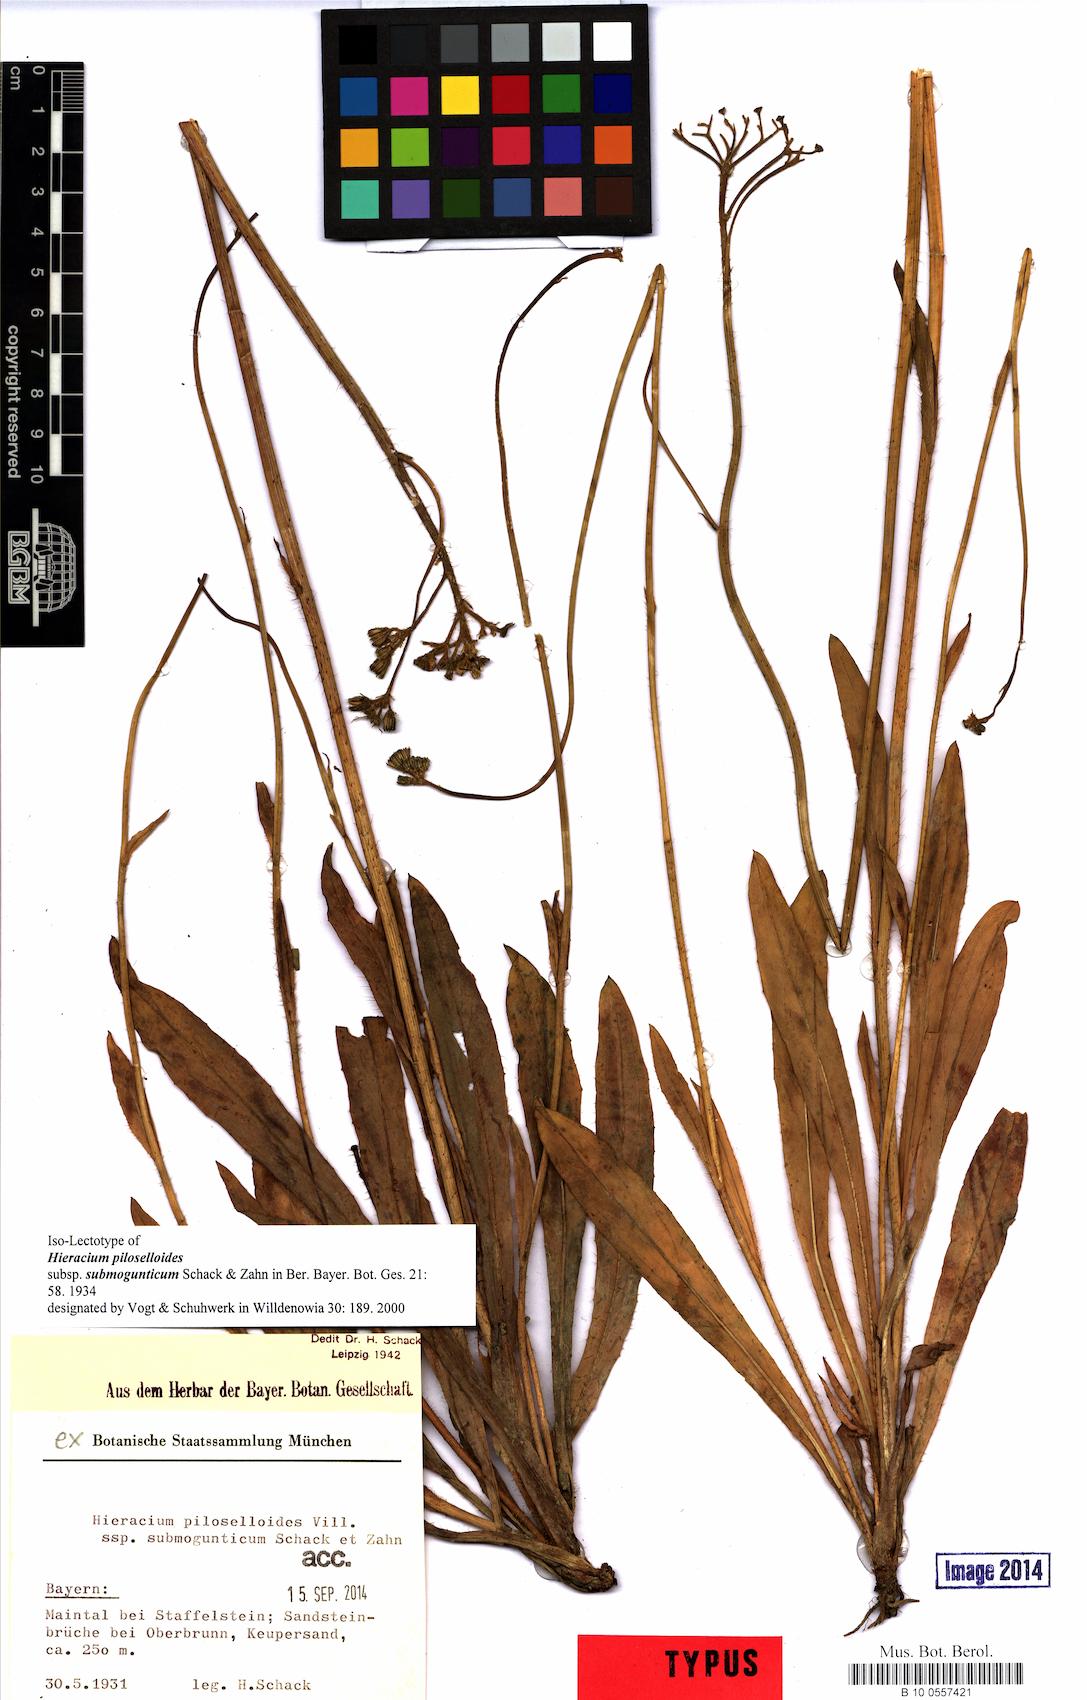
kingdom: Plantae
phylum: Tracheophyta
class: Magnoliopsida
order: Asterales
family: Asteraceae
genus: Pilosella
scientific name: Pilosella piloselloides
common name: Glaucous king-devil
